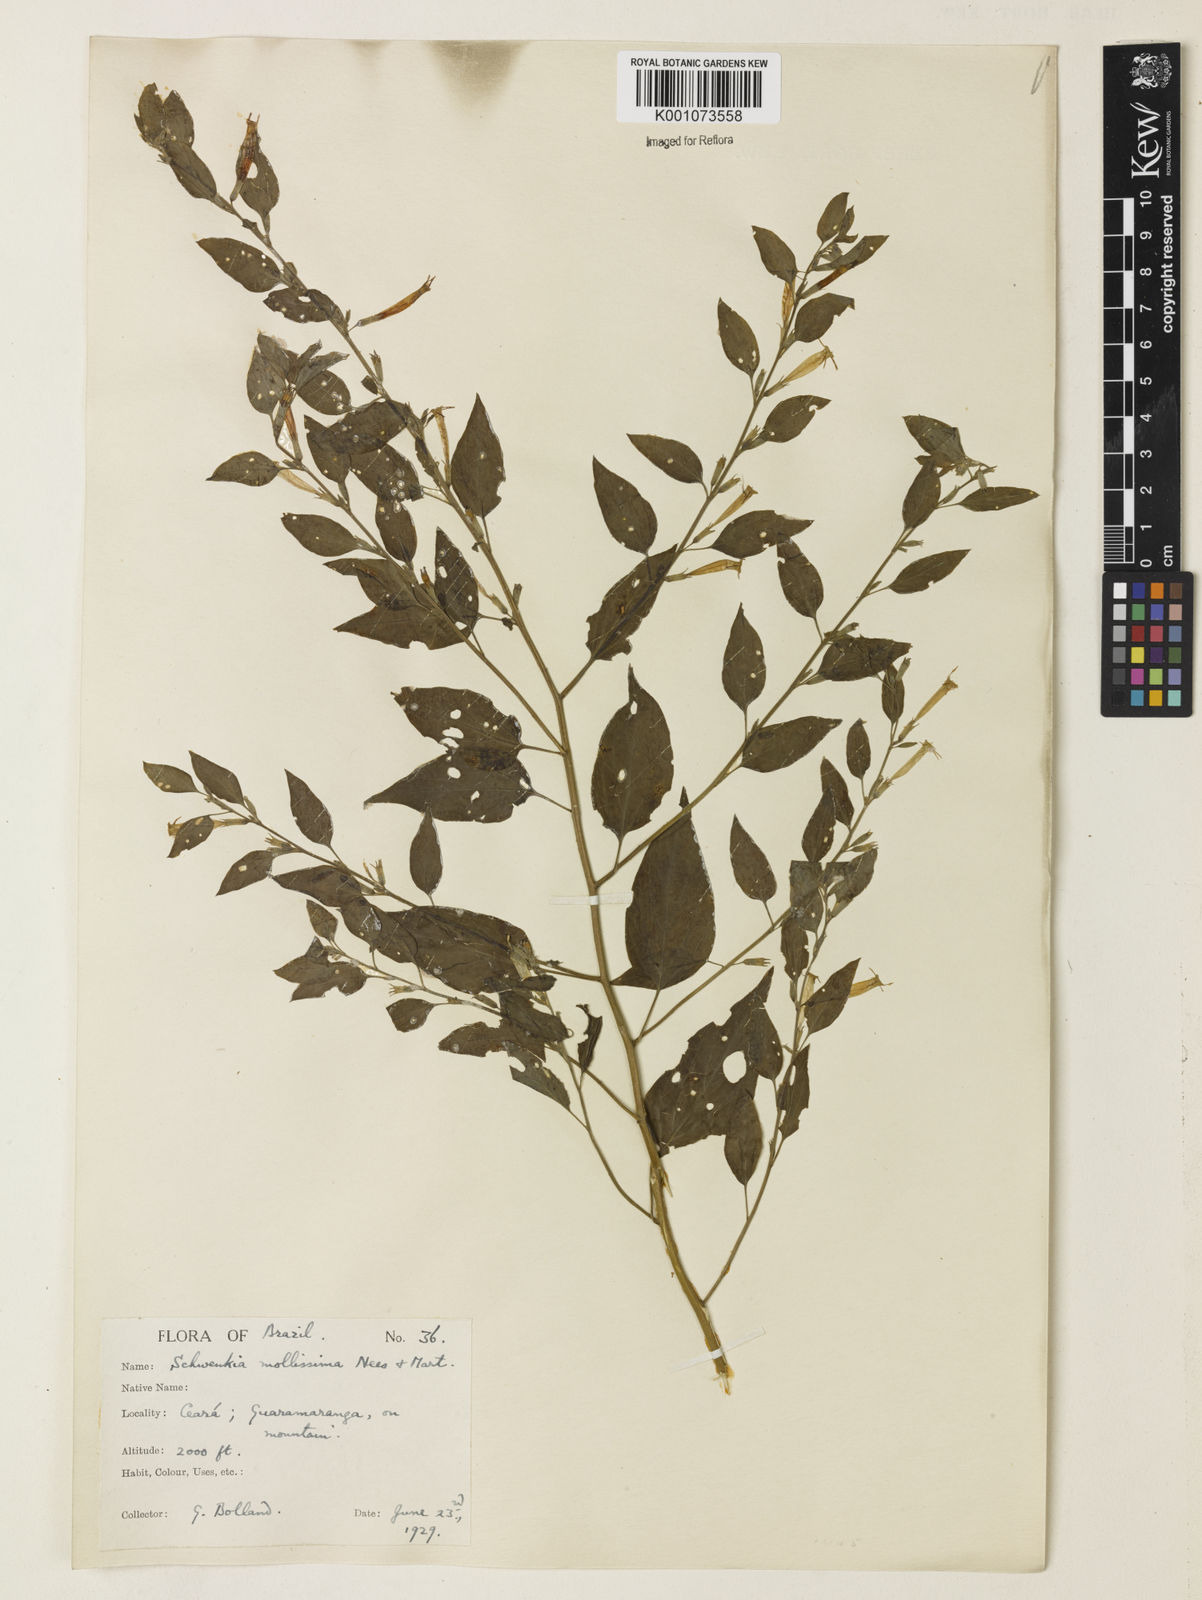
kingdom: Plantae
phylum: Tracheophyta
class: Magnoliopsida
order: Solanales
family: Solanaceae
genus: Schwenckia
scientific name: Schwenckia mollissima
